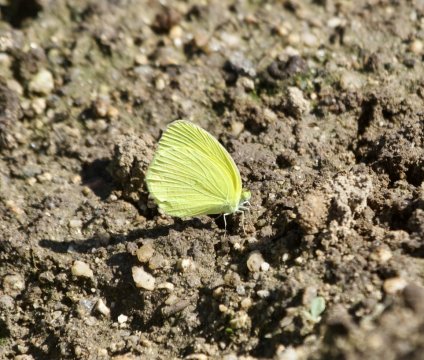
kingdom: Animalia
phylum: Arthropoda
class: Insecta
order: Lepidoptera
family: Pieridae
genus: Pyrisitia
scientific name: Pyrisitia nise
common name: Mimosa Yellow
